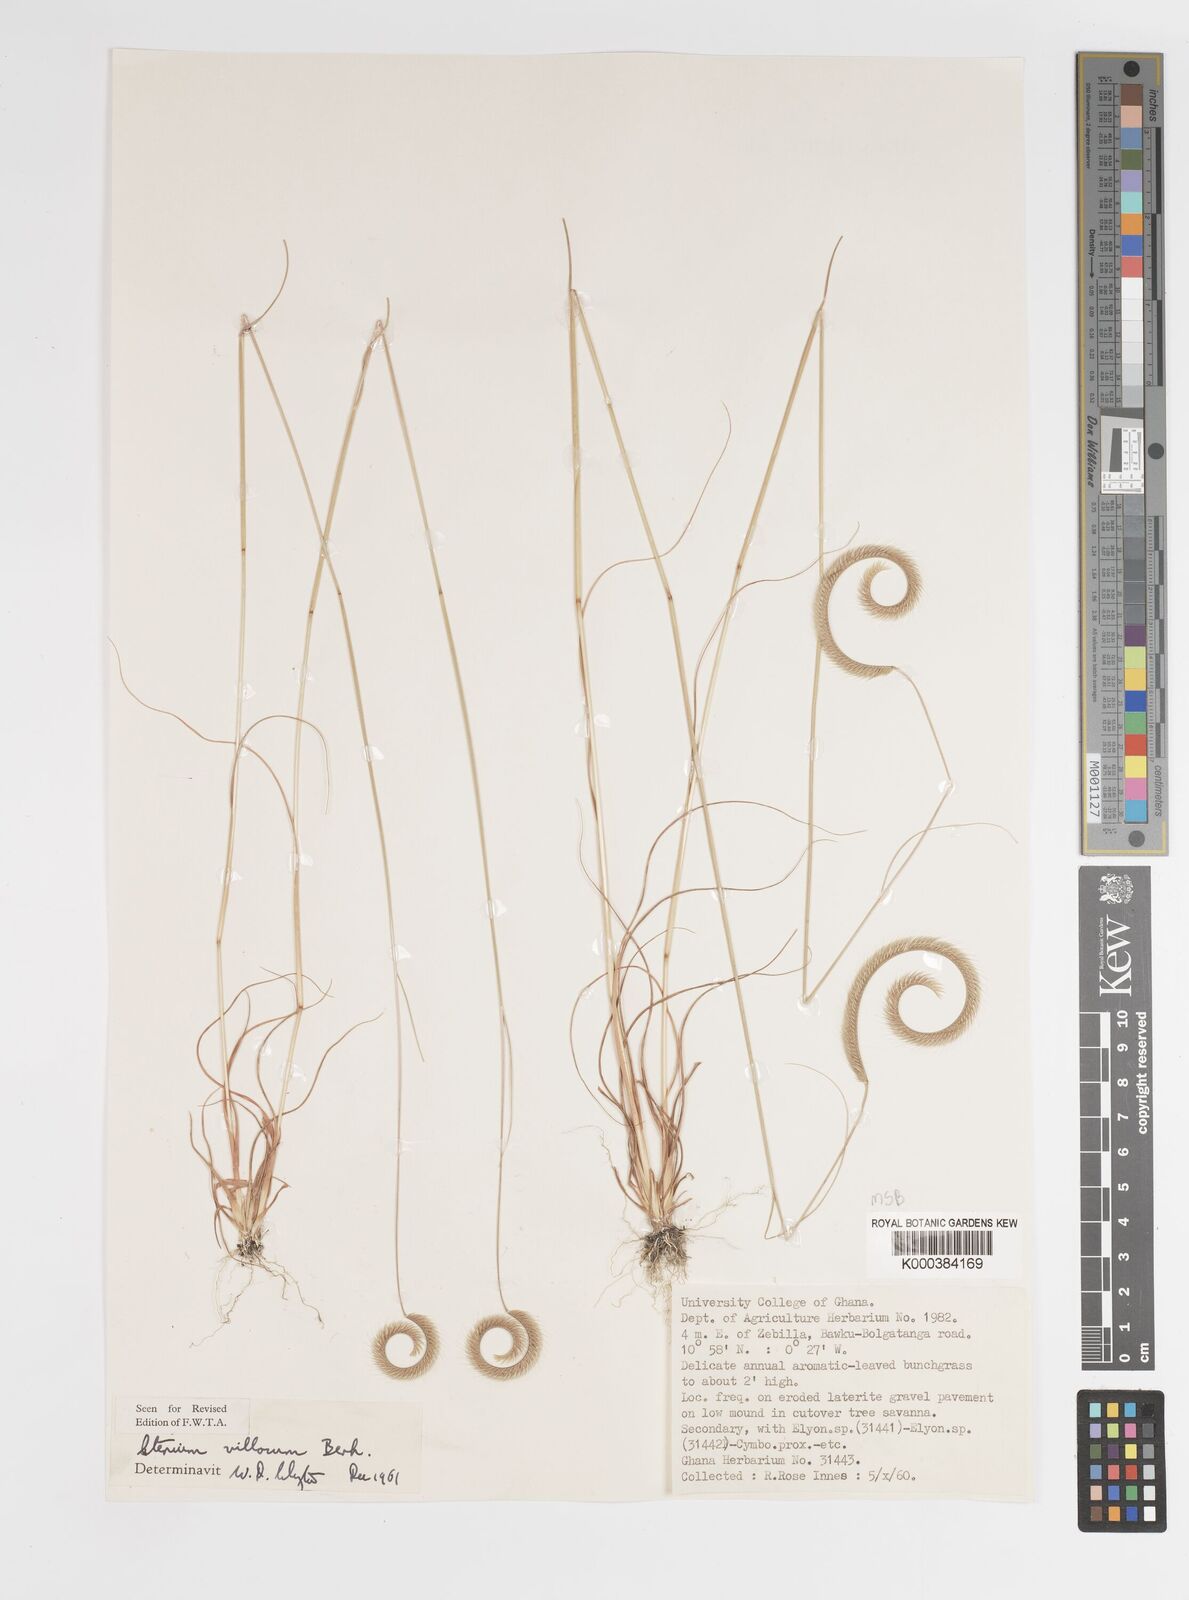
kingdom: Plantae
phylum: Tracheophyta
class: Liliopsida
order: Poales
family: Poaceae
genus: Ctenium
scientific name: Ctenium villosum
